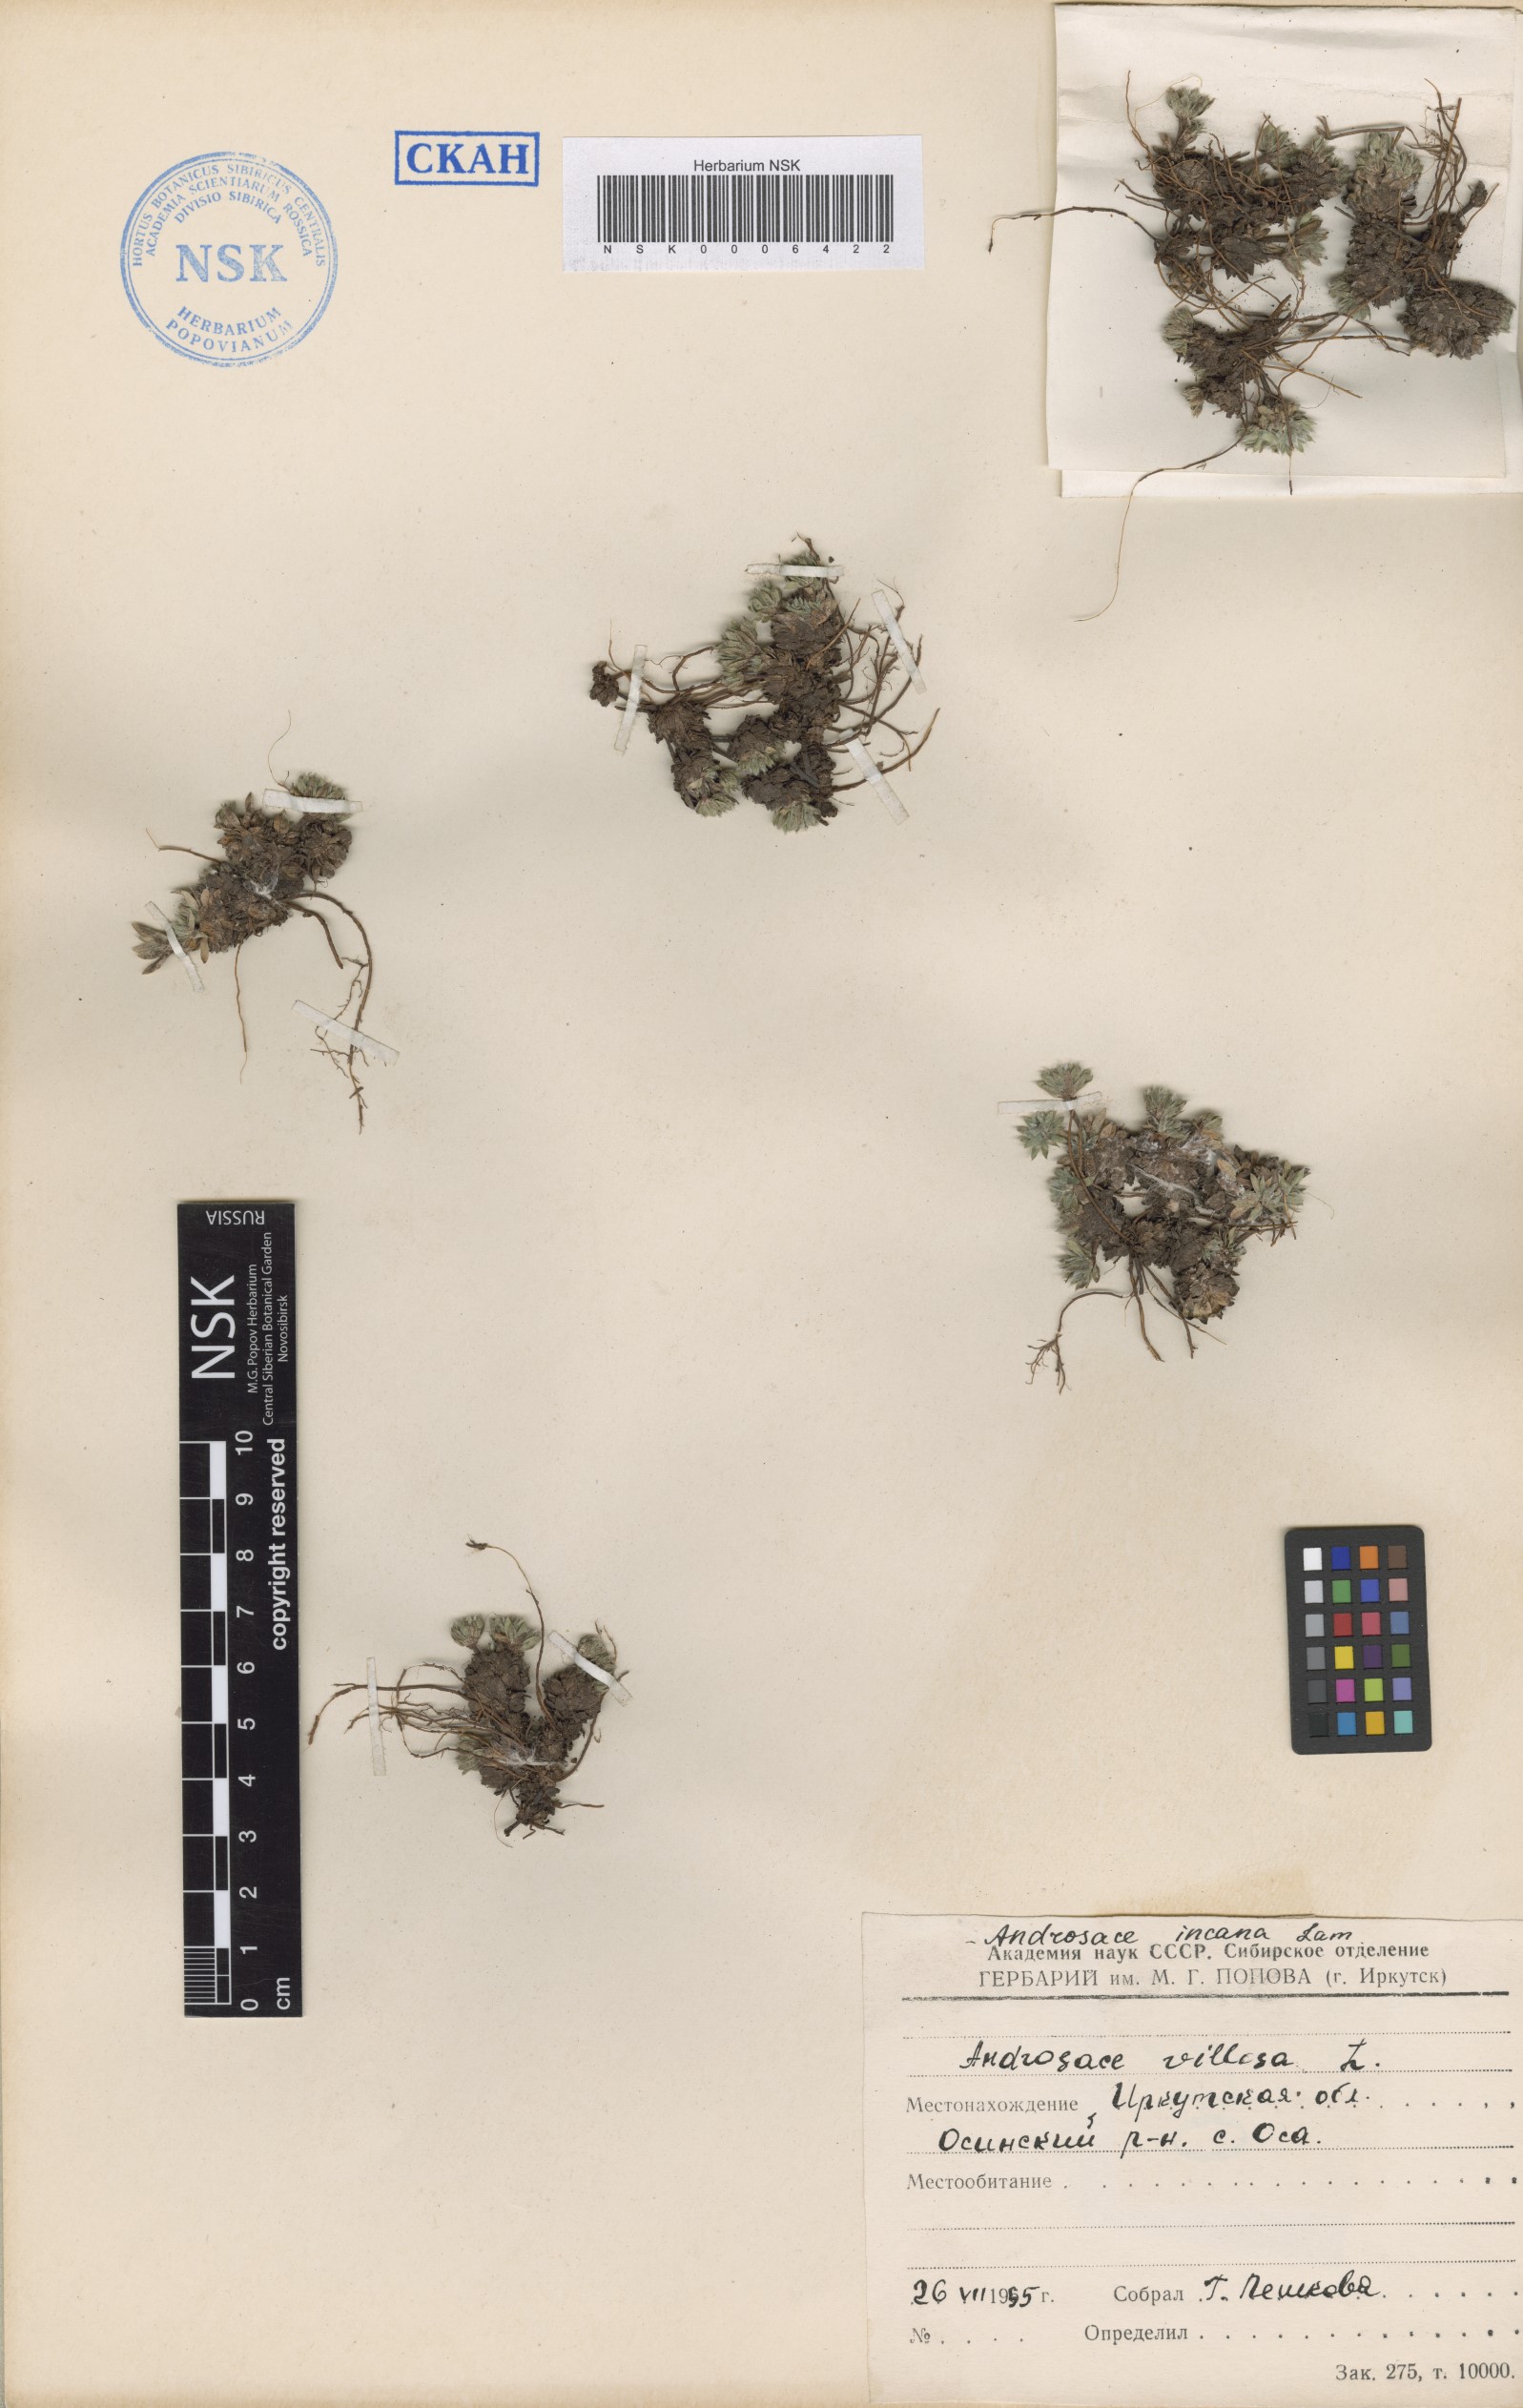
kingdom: Plantae
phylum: Tracheophyta
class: Magnoliopsida
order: Ericales
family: Primulaceae
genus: Androsace
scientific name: Androsace incana
